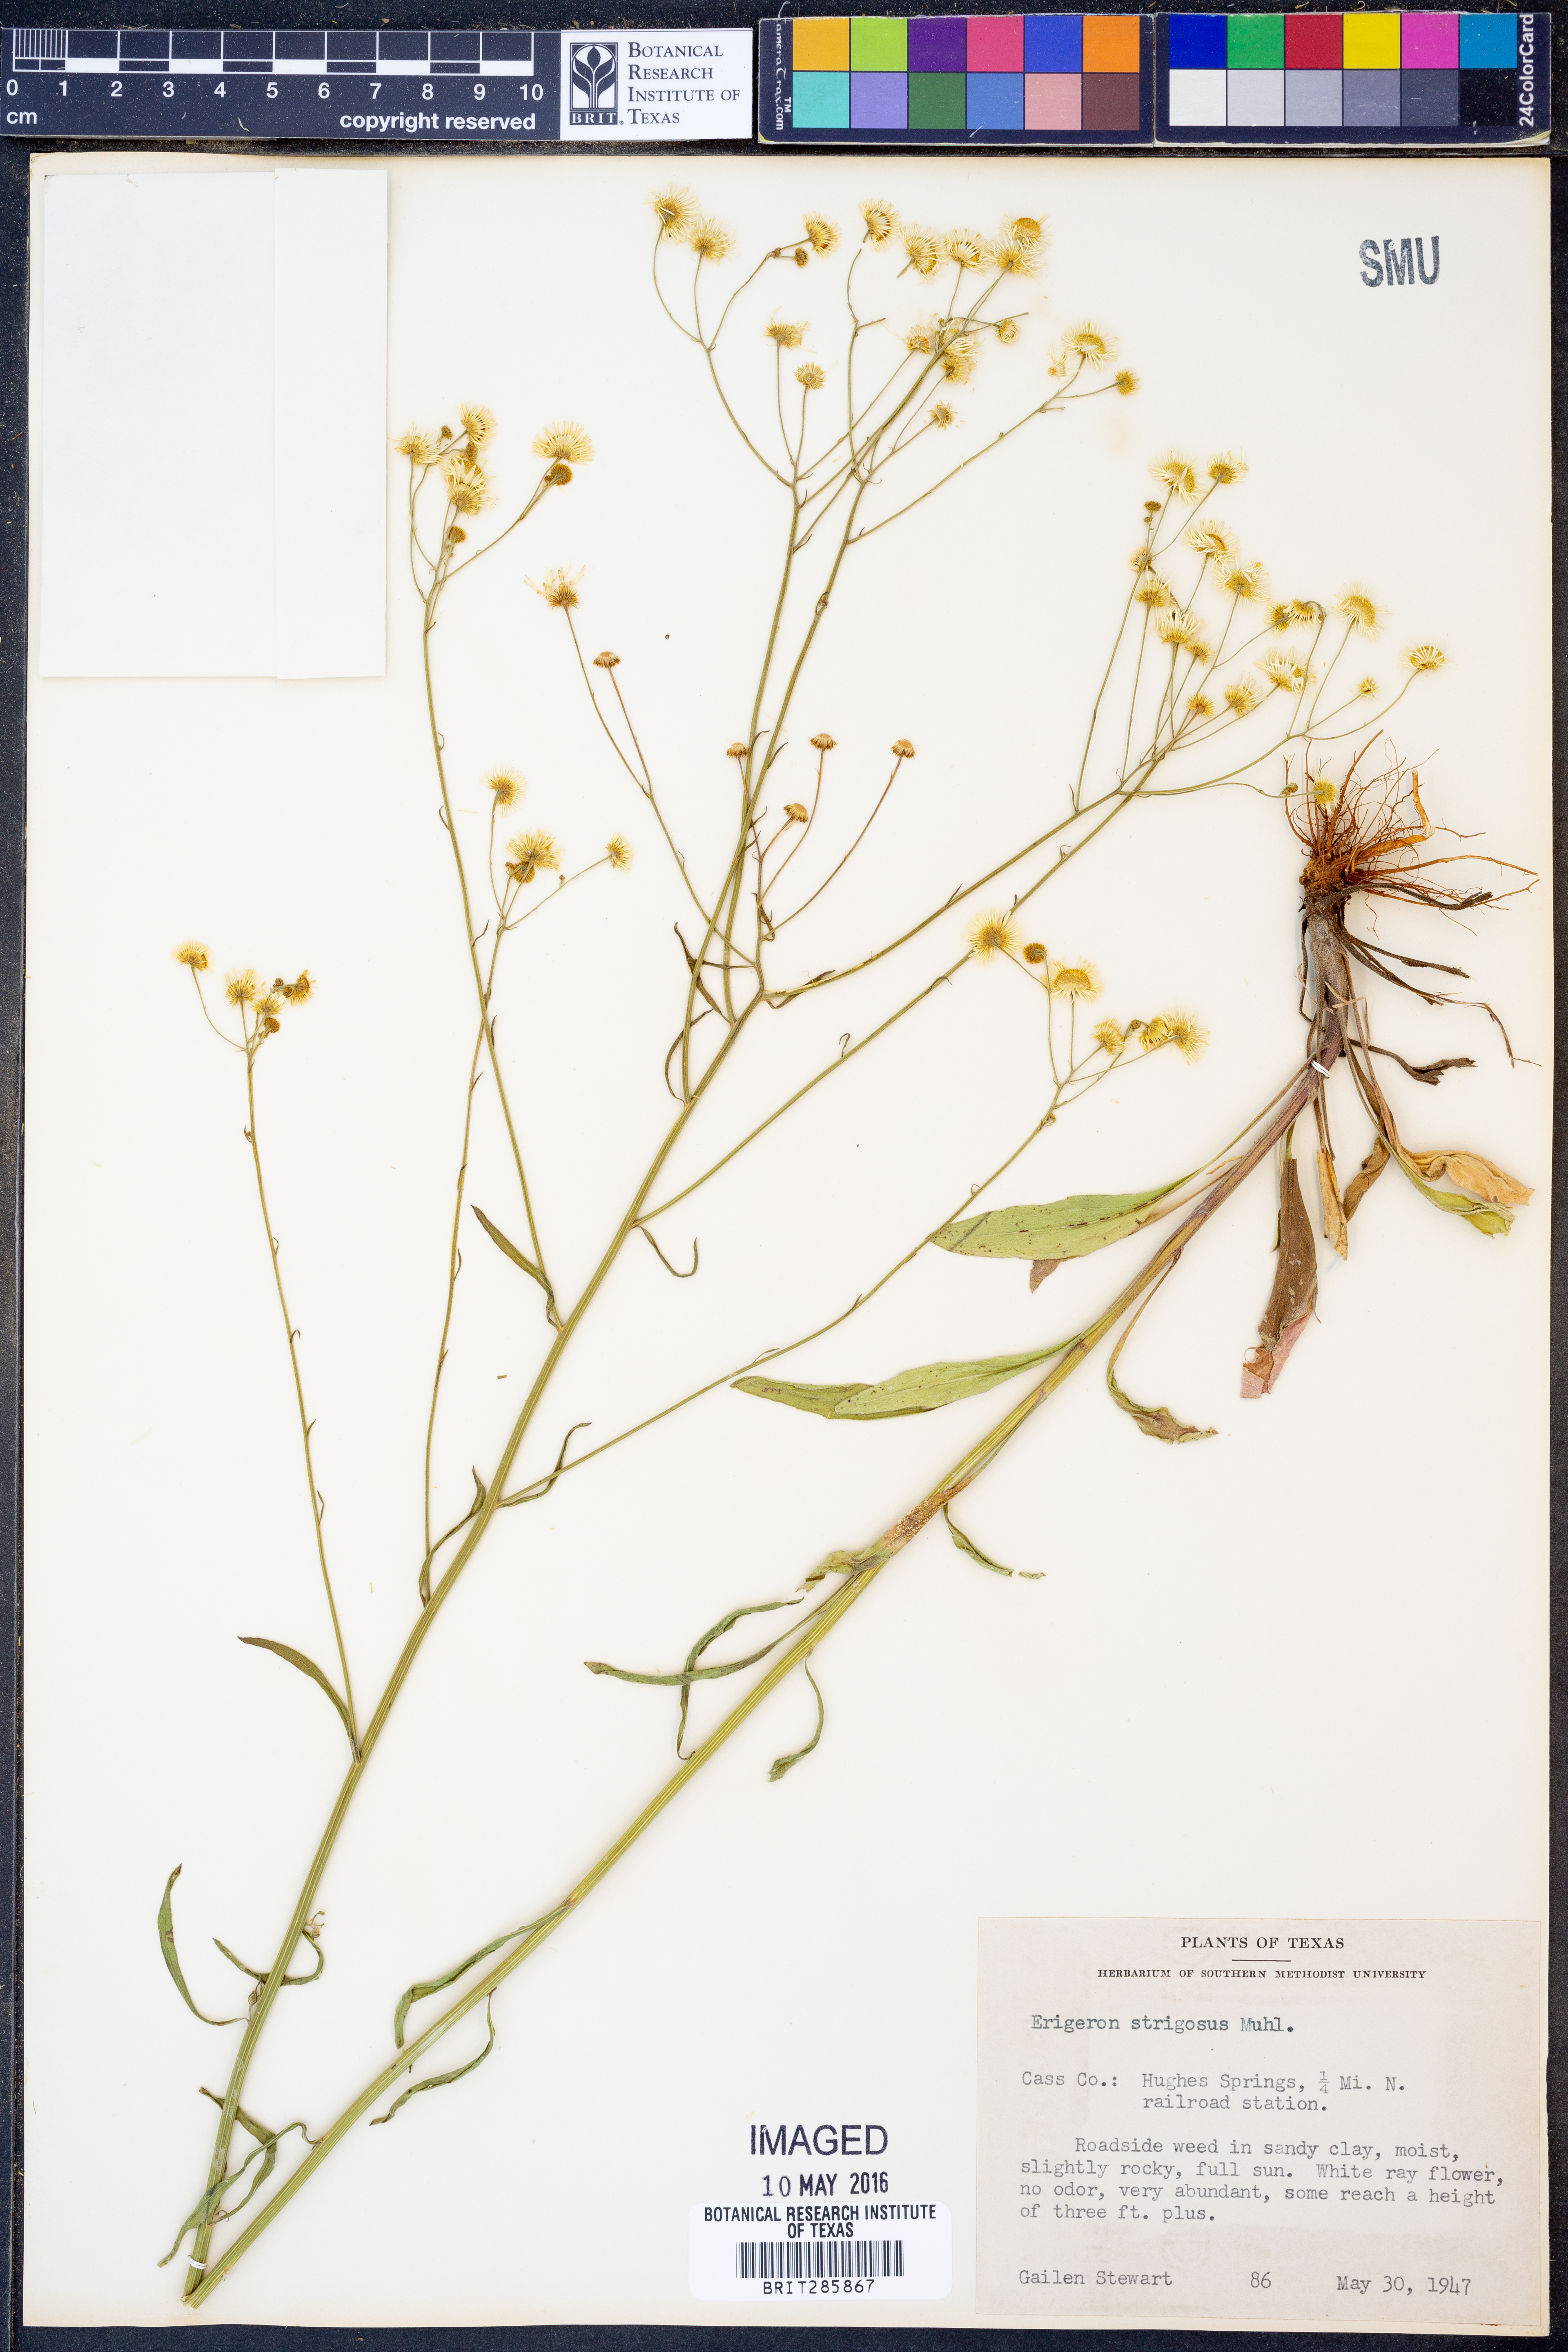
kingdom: Plantae
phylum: Tracheophyta
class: Magnoliopsida
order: Asterales
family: Asteraceae
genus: Erigeron
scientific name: Erigeron strigosus
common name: Common eastern fleabane
